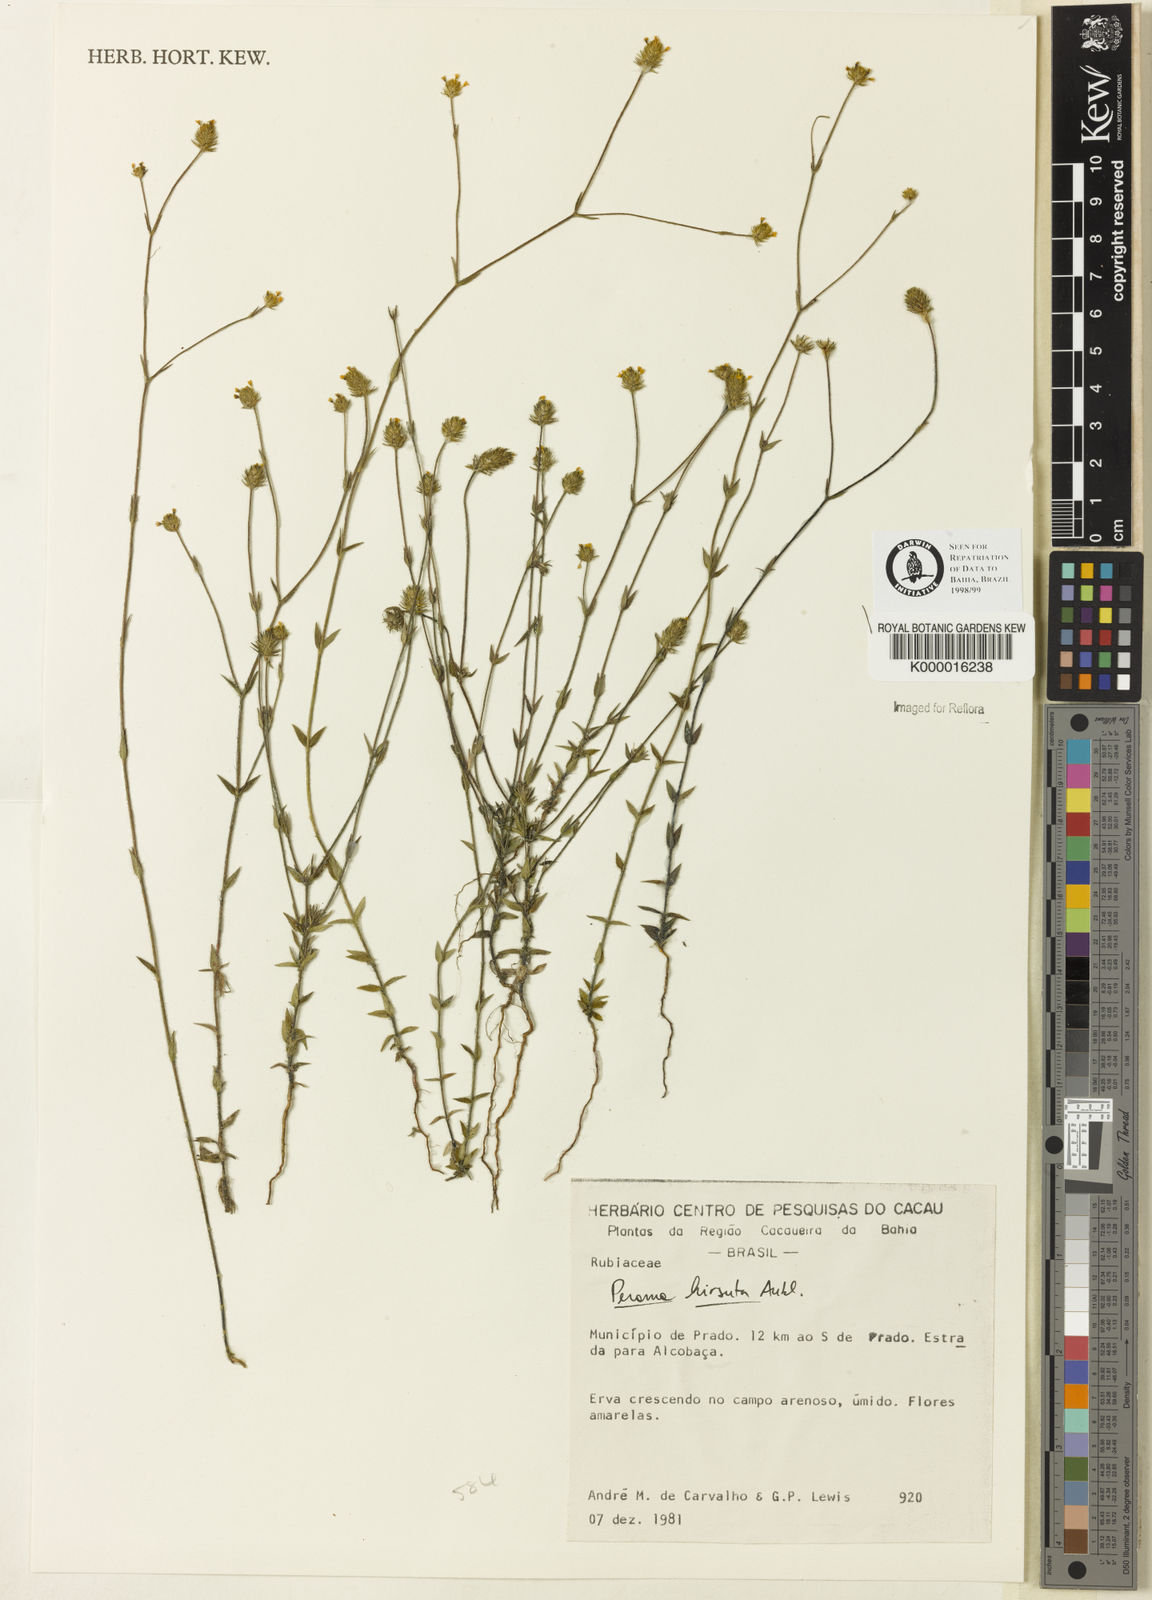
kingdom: Plantae
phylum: Tracheophyta
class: Magnoliopsida
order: Gentianales
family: Rubiaceae
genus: Perama
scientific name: Perama hirsuta
